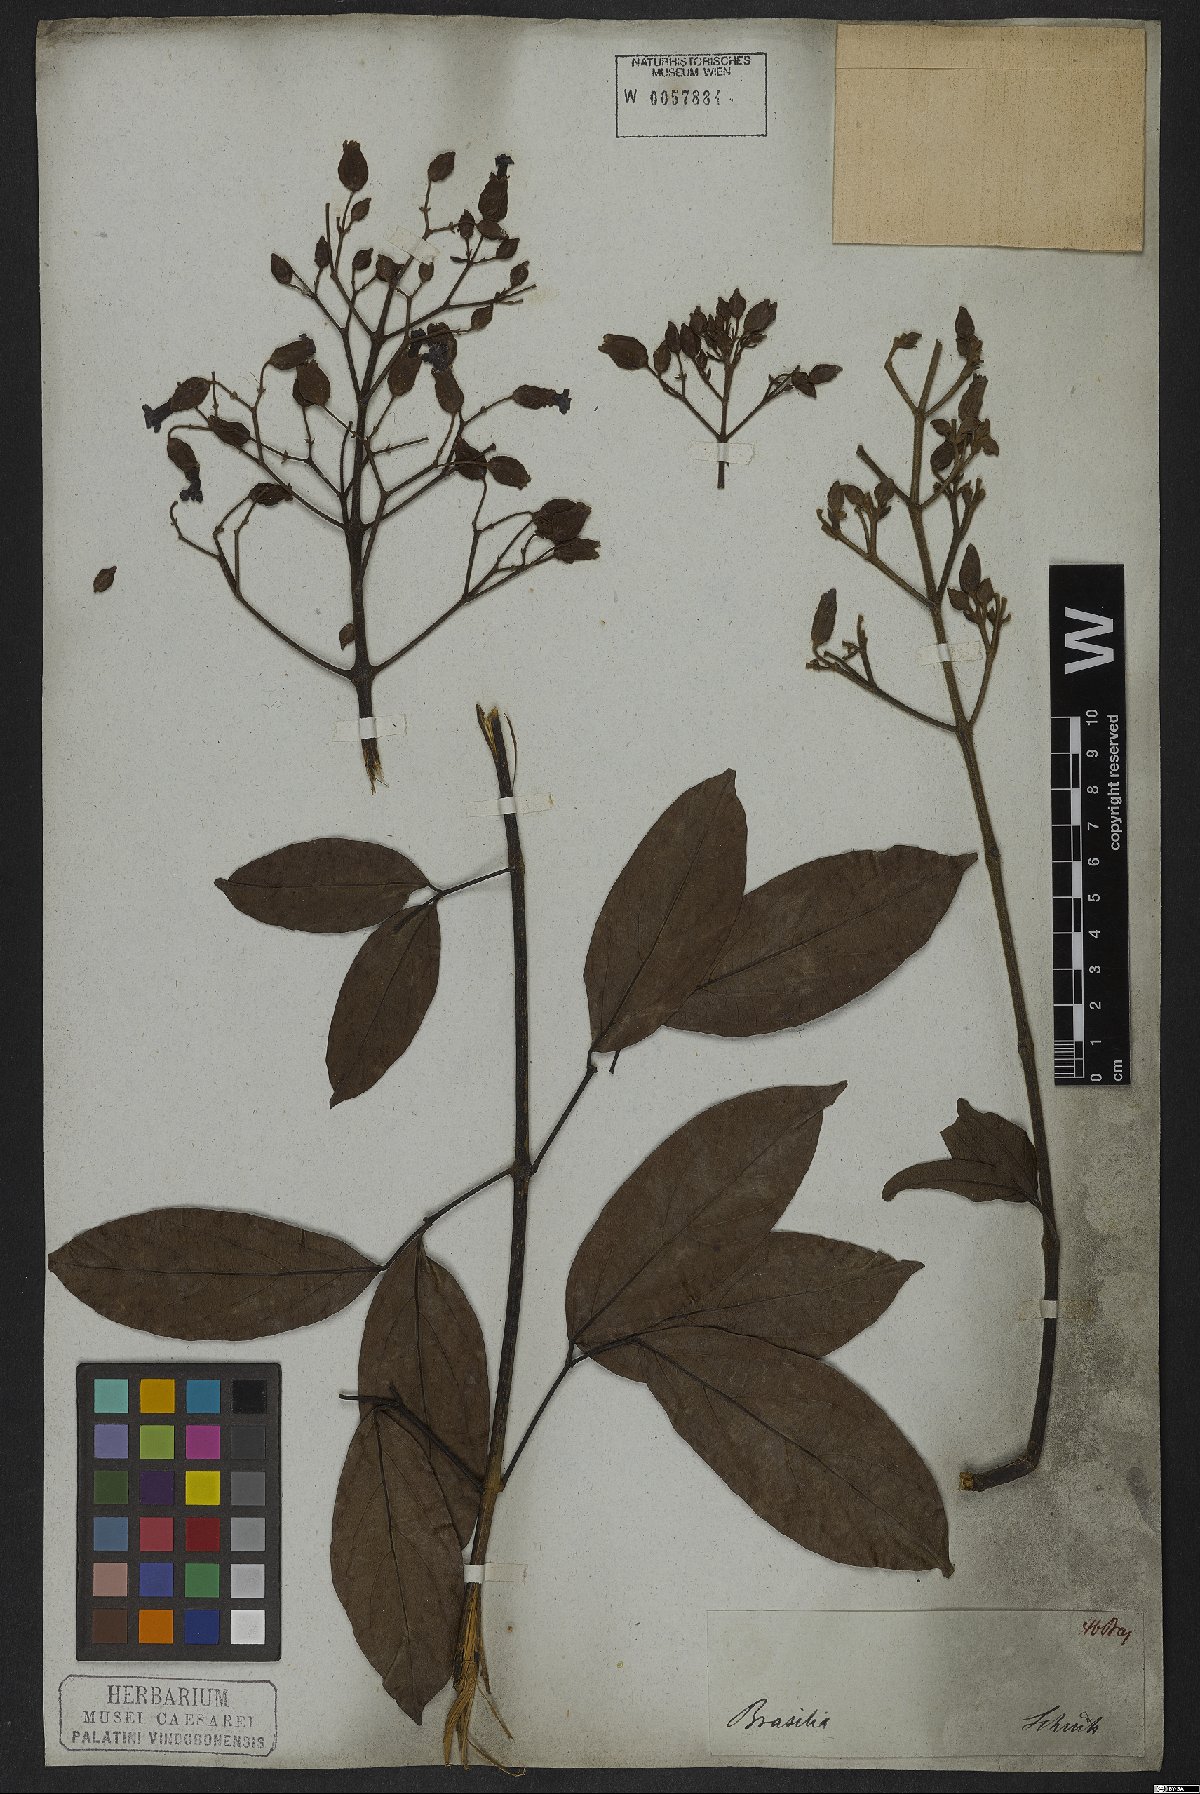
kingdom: Plantae
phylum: Tracheophyta
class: Magnoliopsida
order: Lamiales
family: Bignoniaceae
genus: Fridericia
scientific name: Fridericia speciosa
